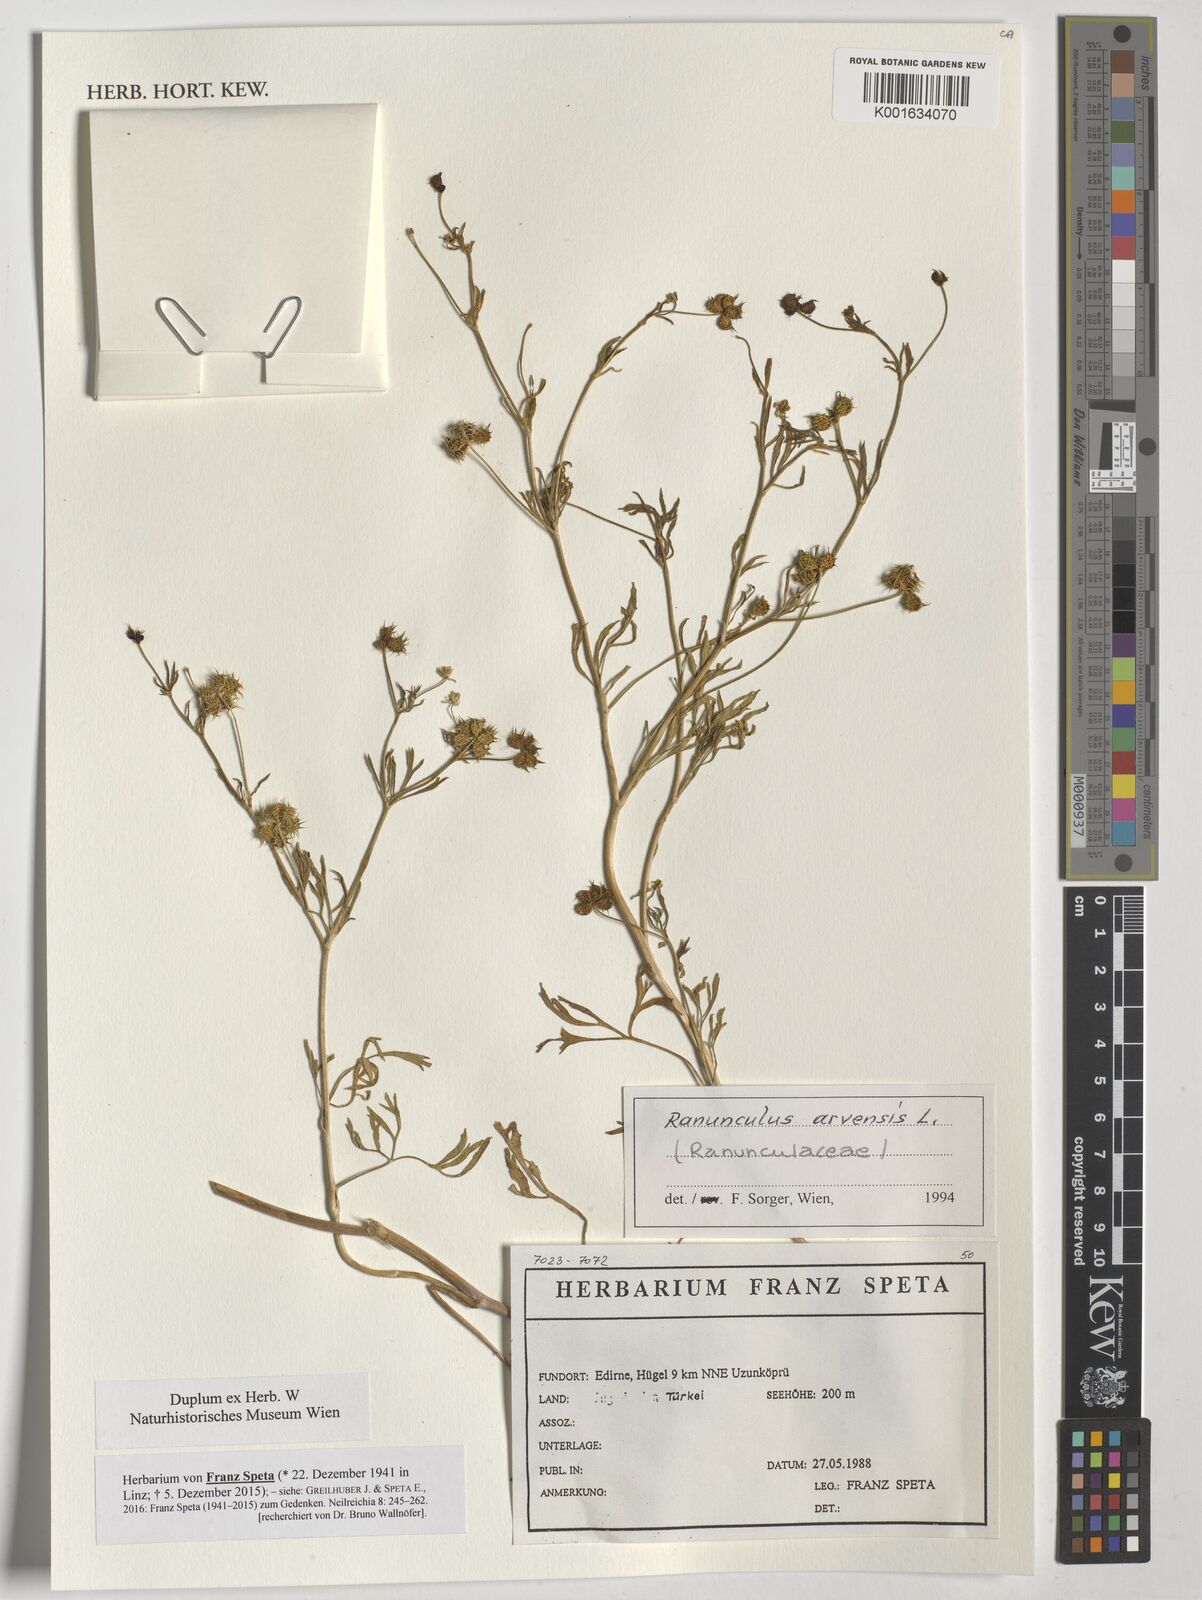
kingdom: Plantae
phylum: Tracheophyta
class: Magnoliopsida
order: Ranunculales
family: Ranunculaceae
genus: Ranunculus
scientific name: Ranunculus arvensis
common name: Corn buttercup
